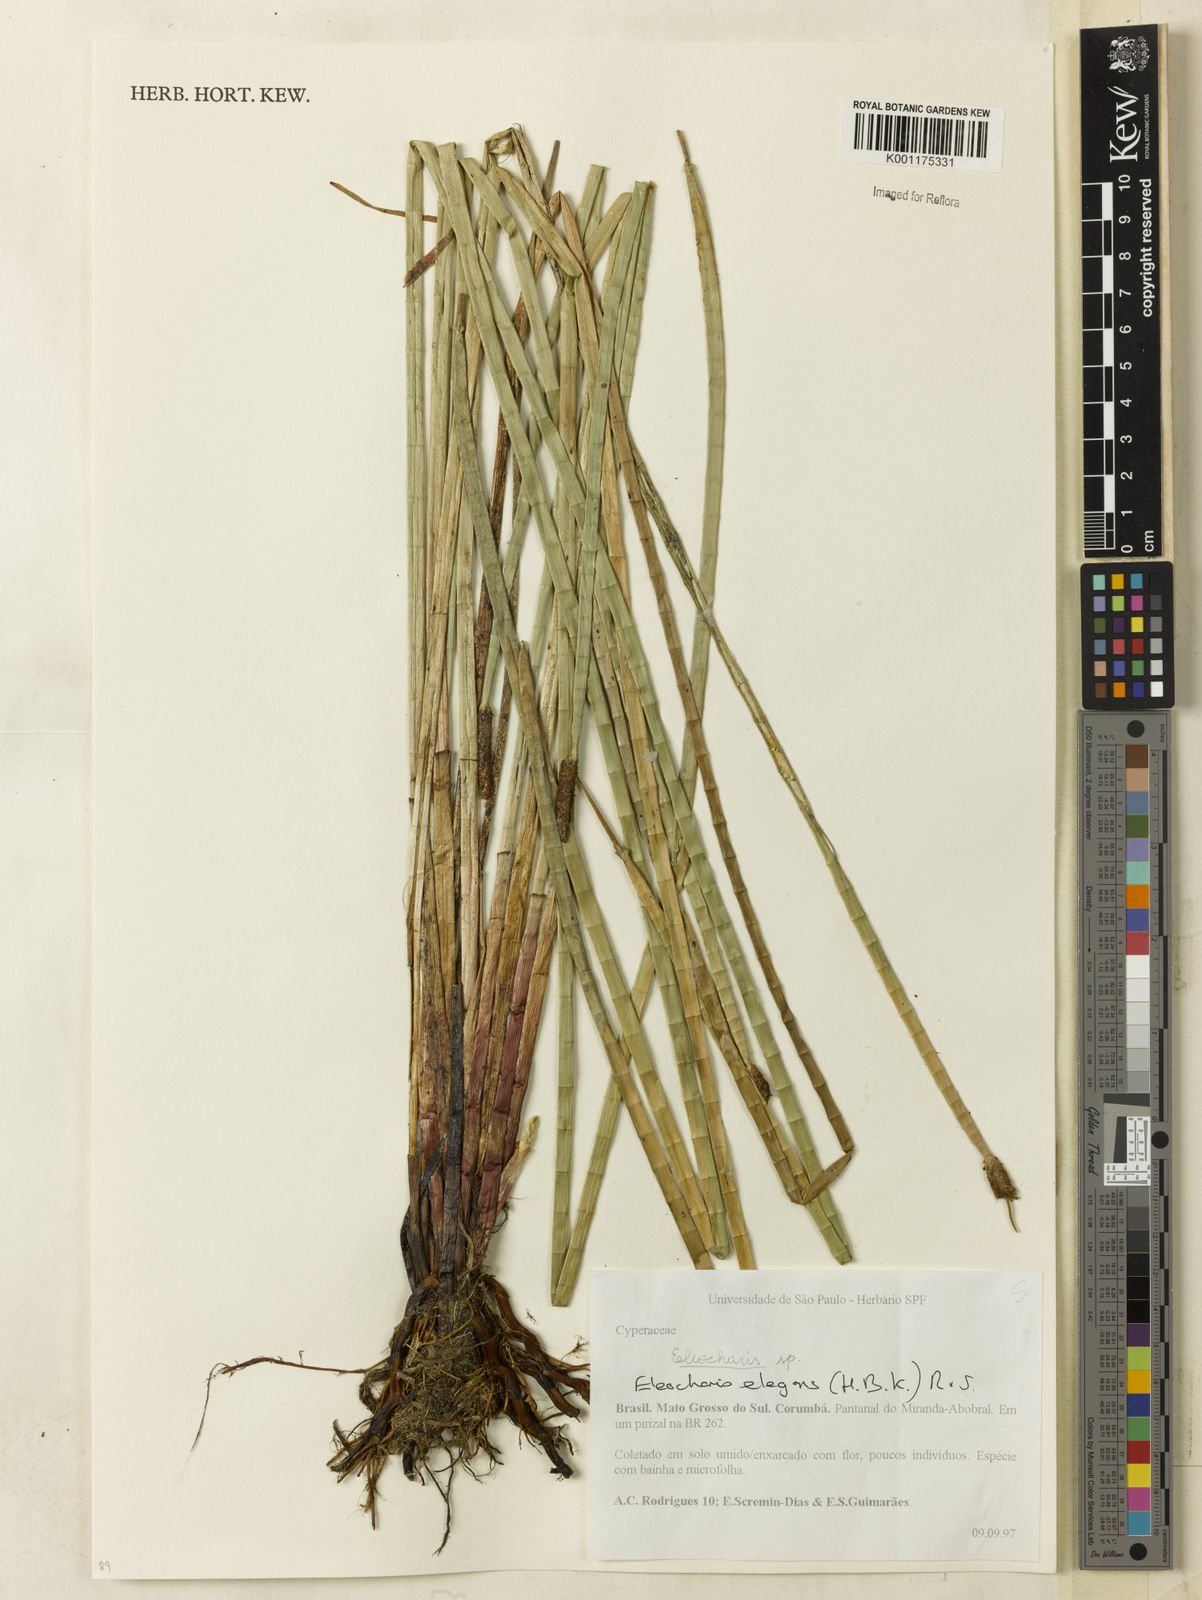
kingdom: Plantae
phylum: Tracheophyta
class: Liliopsida
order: Poales
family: Cyperaceae
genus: Eleocharis
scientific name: Eleocharis elegans
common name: Elegant spike-rush
